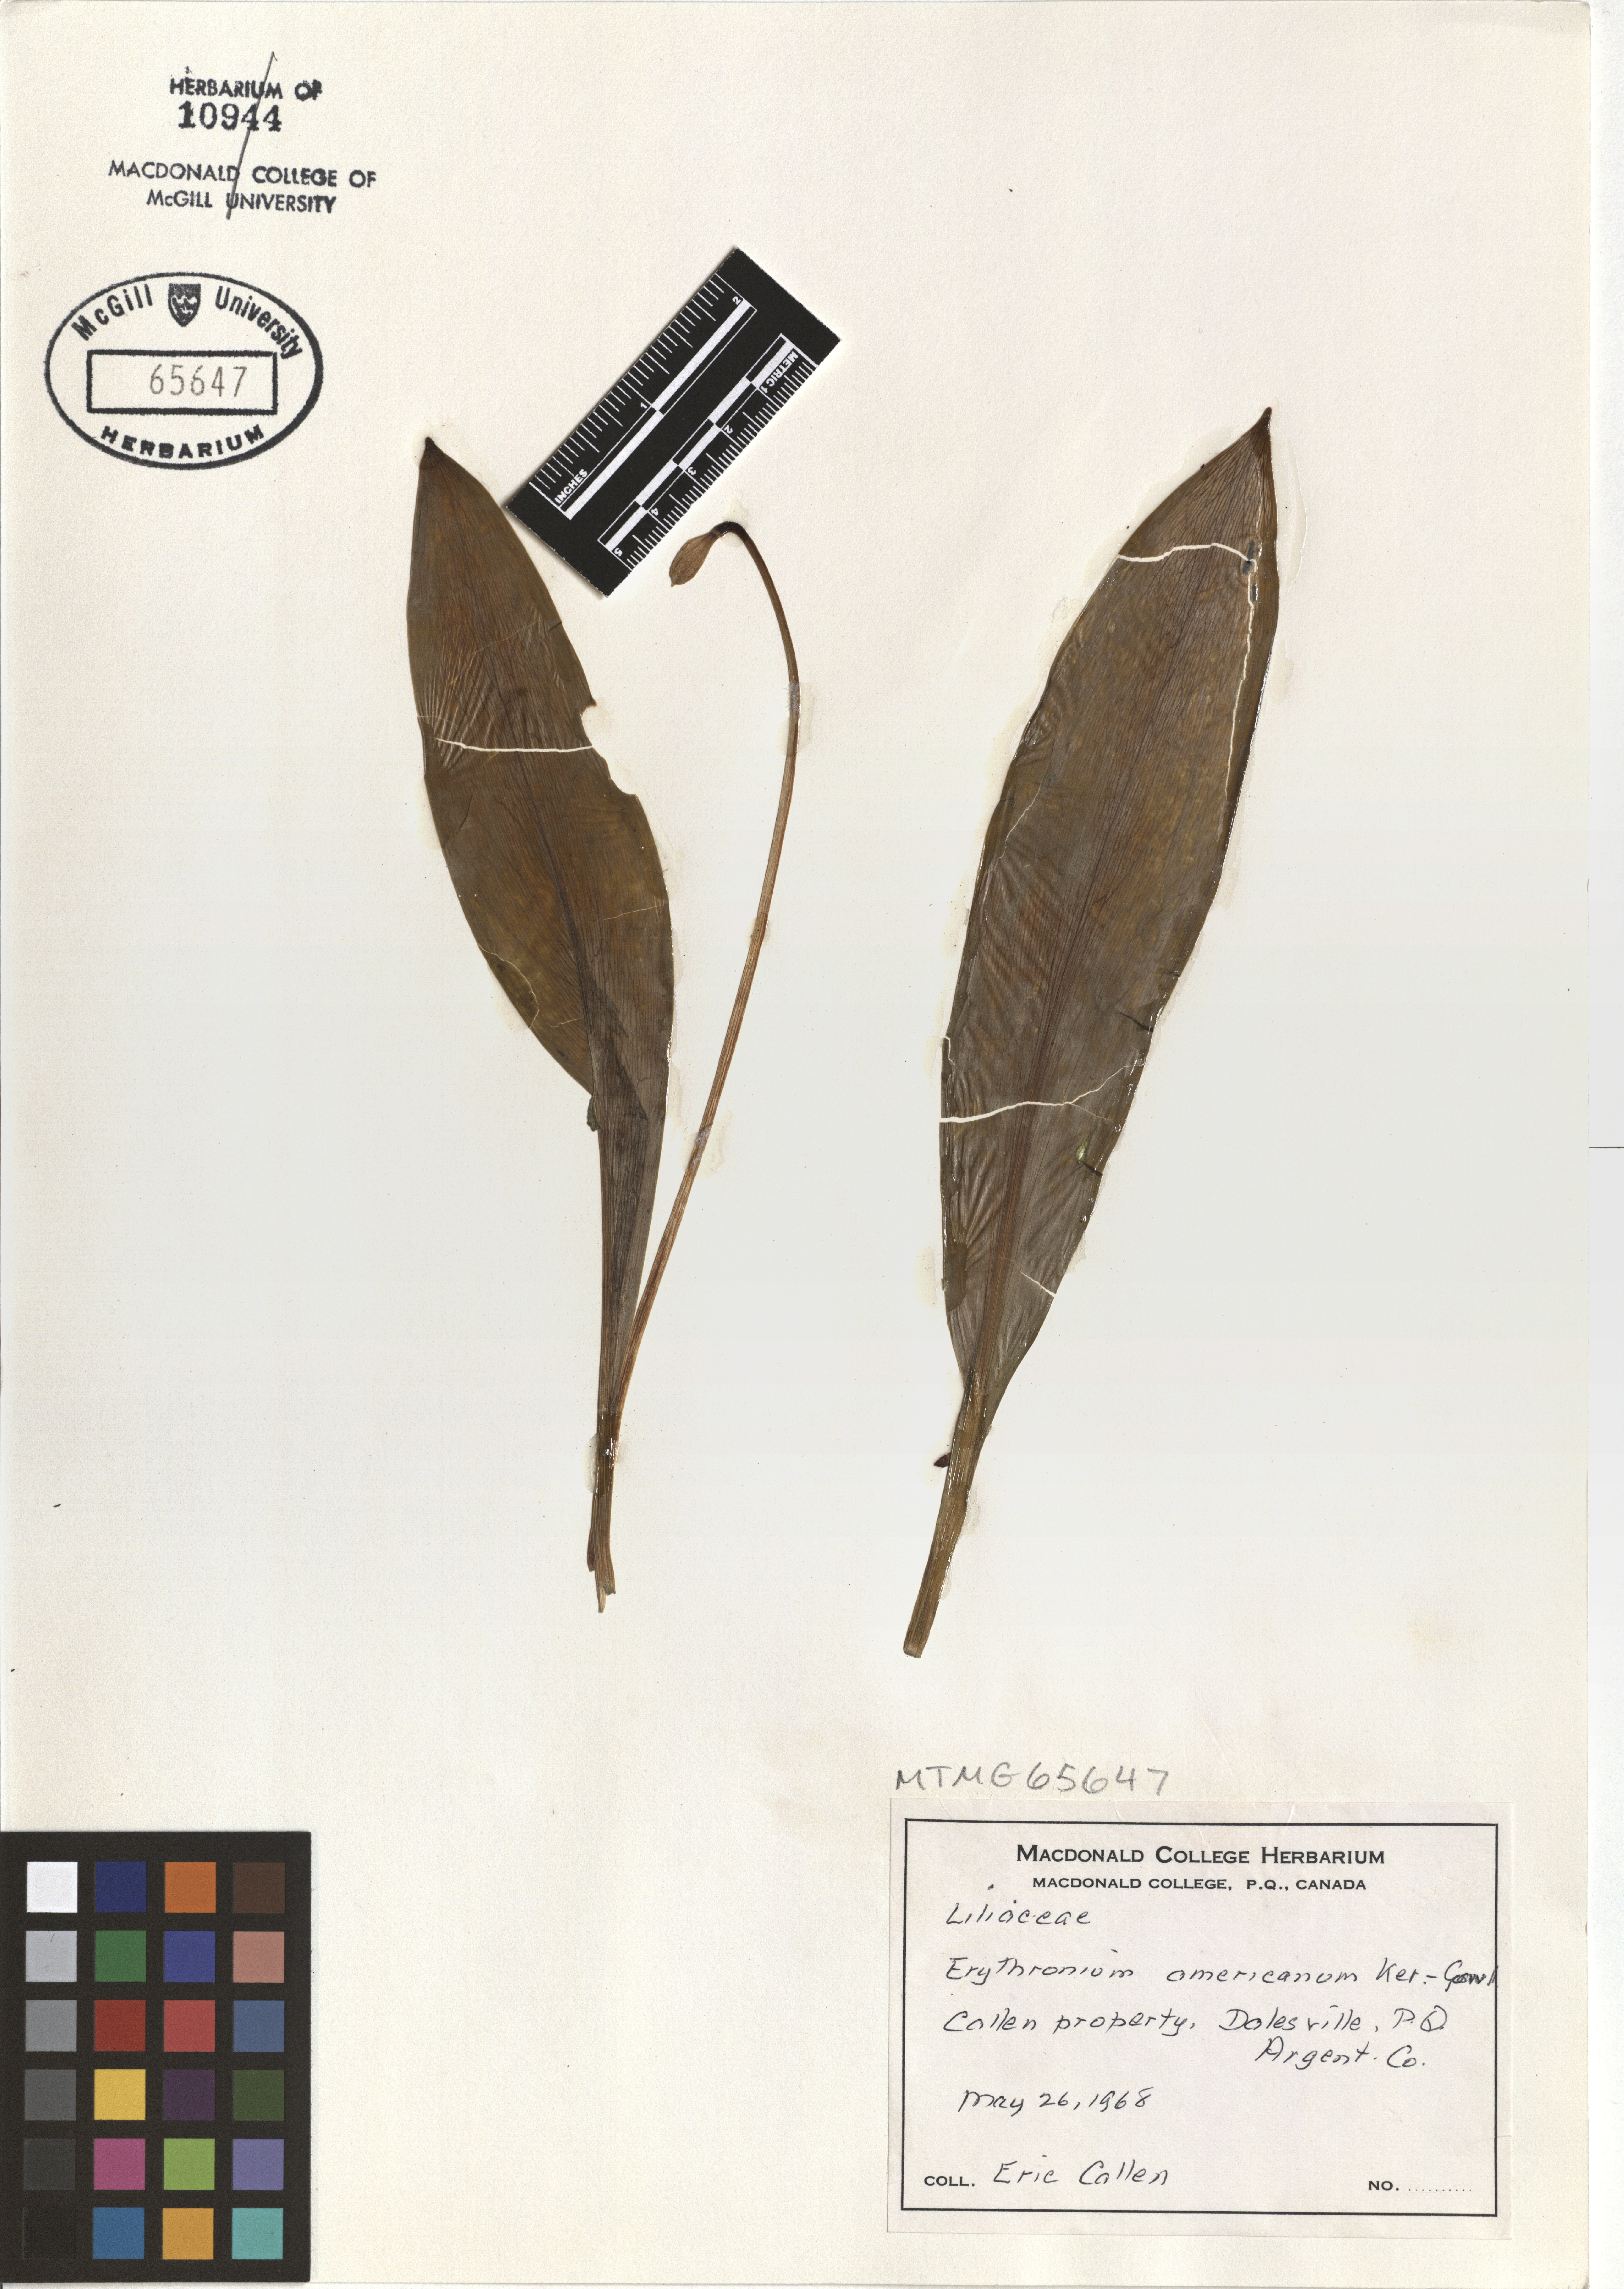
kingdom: Plantae
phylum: Tracheophyta
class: Liliopsida
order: Liliales
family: Liliaceae
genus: Erythronium
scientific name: Erythronium americanum
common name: Yellow adder's-tongue
